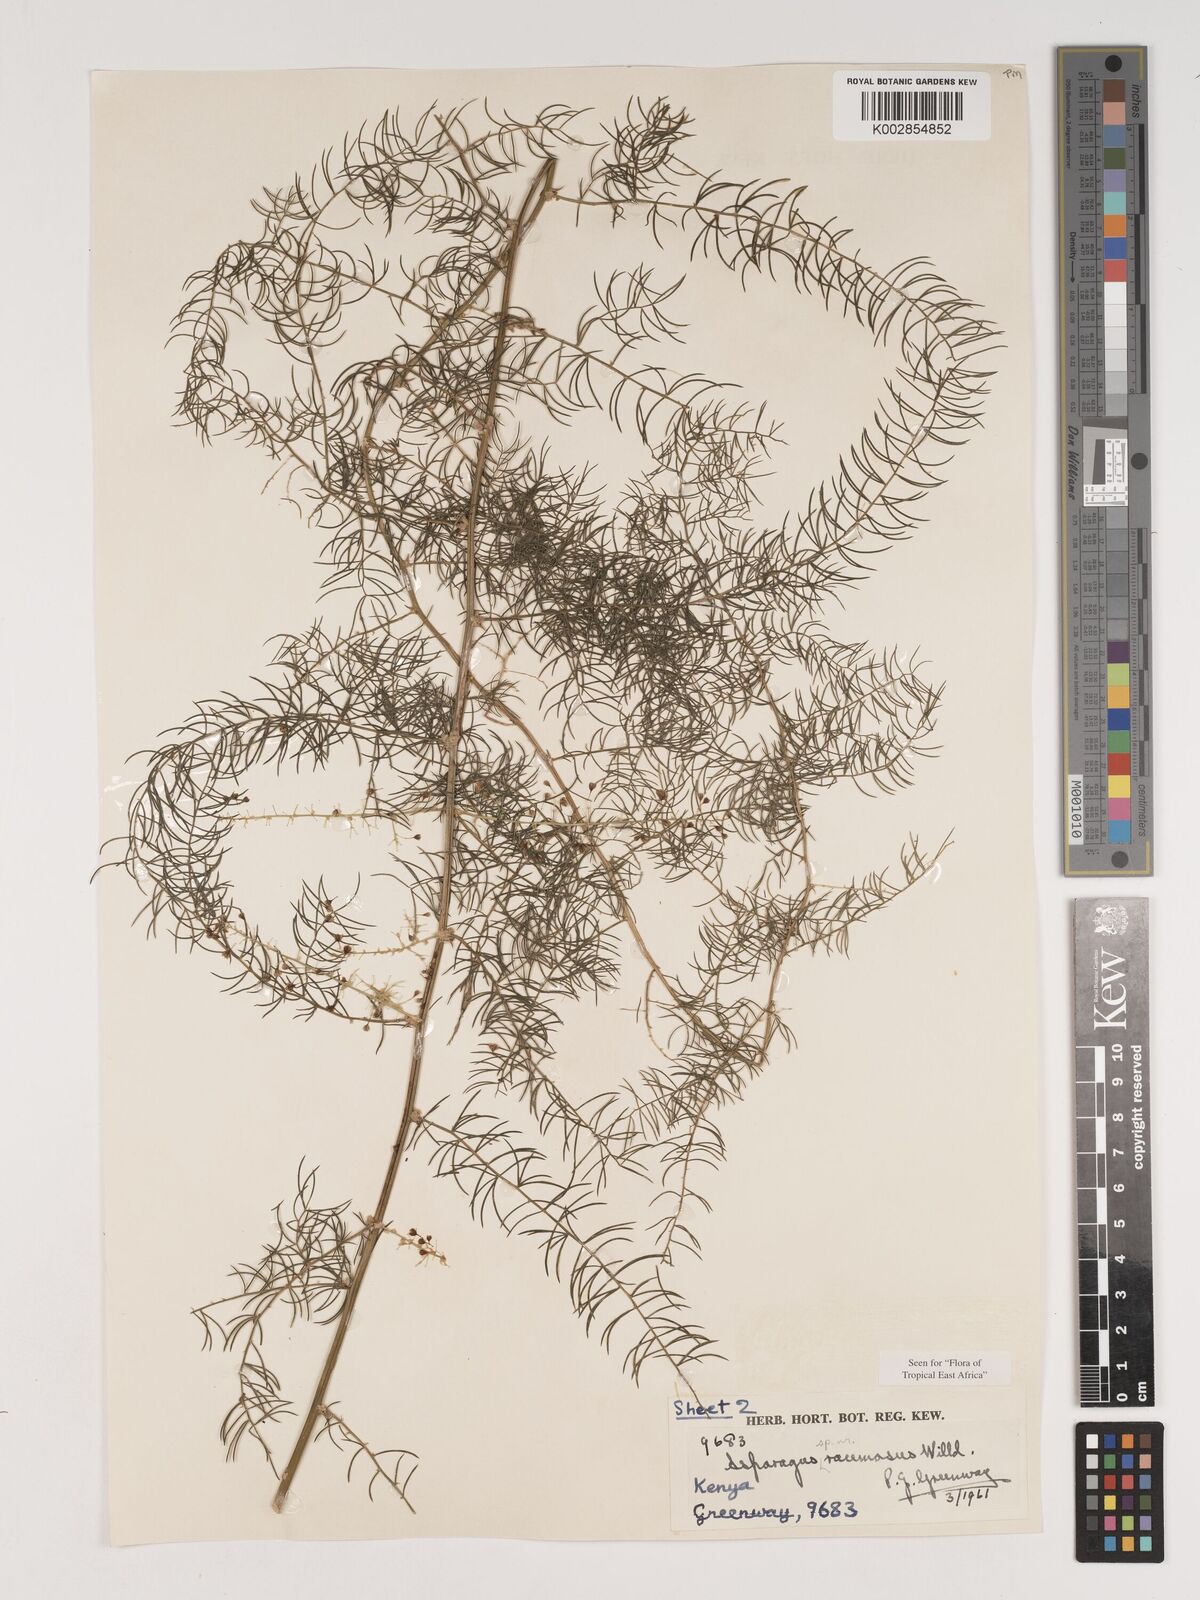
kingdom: Plantae
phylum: Tracheophyta
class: Liliopsida
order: Asparagales
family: Asparagaceae
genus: Asparagus
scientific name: Asparagus racemosus
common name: Asparagus-fern
